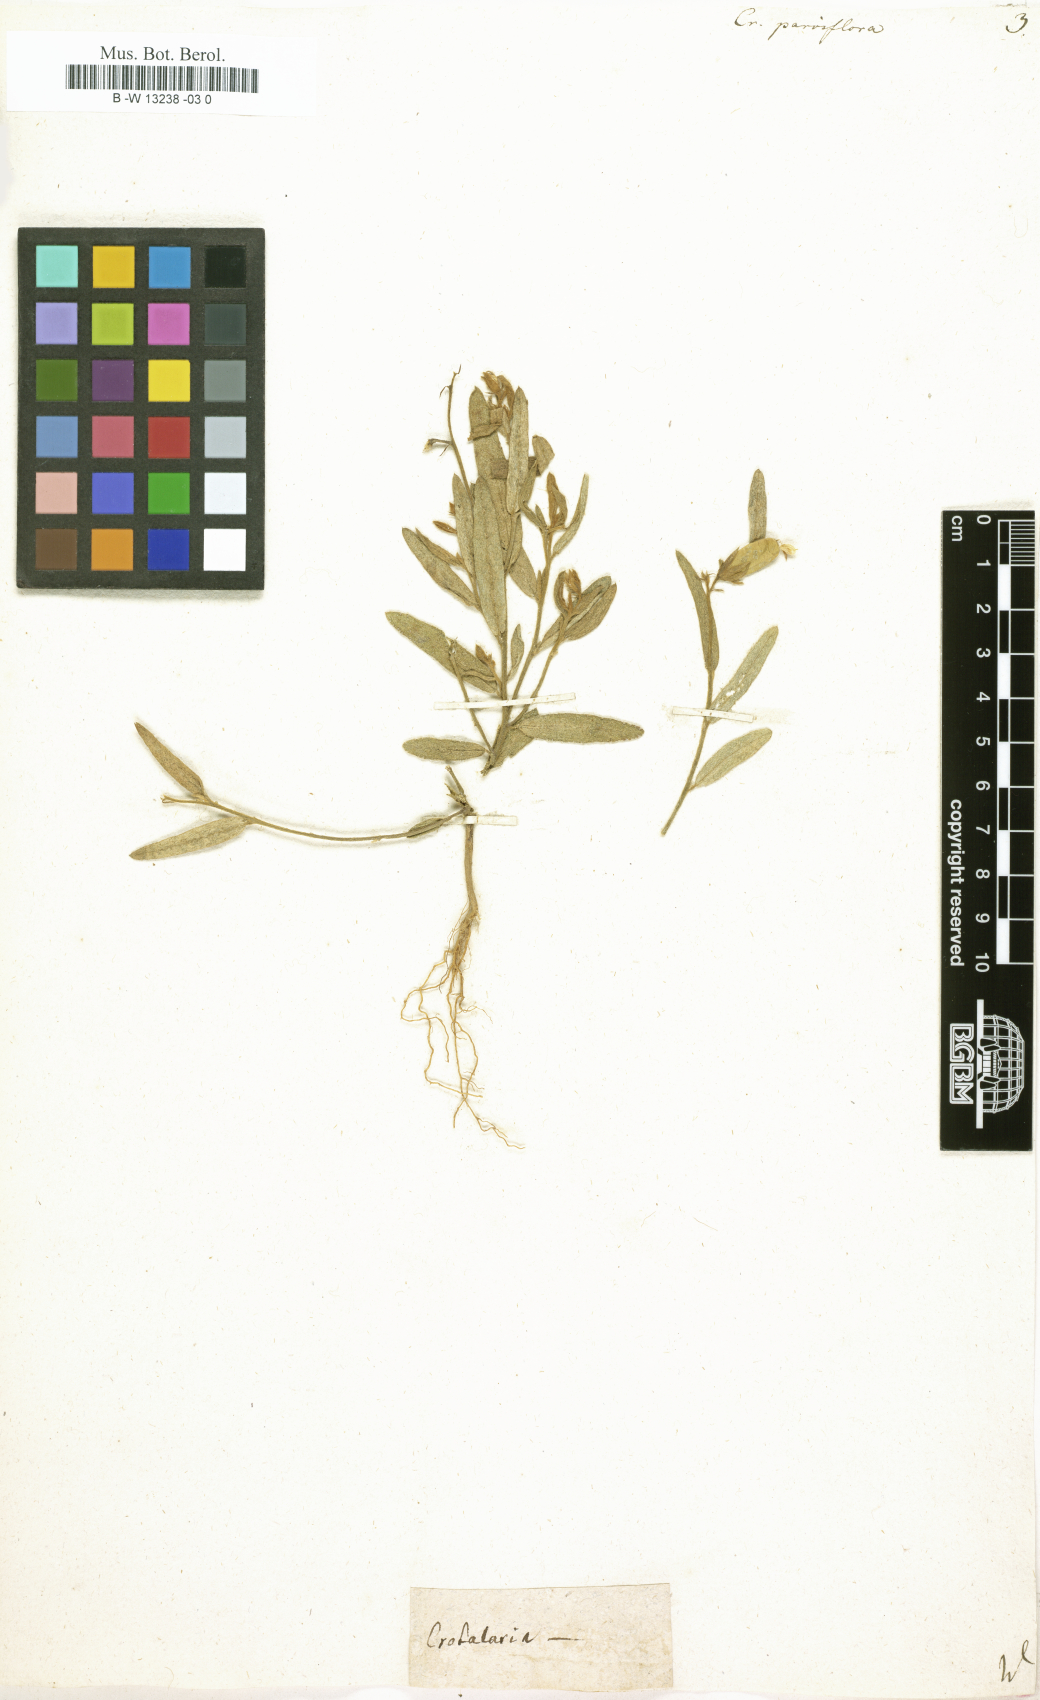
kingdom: Plantae
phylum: Tracheophyta
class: Magnoliopsida
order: Fabales
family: Fabaceae
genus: Crotalaria
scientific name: Crotalaria
